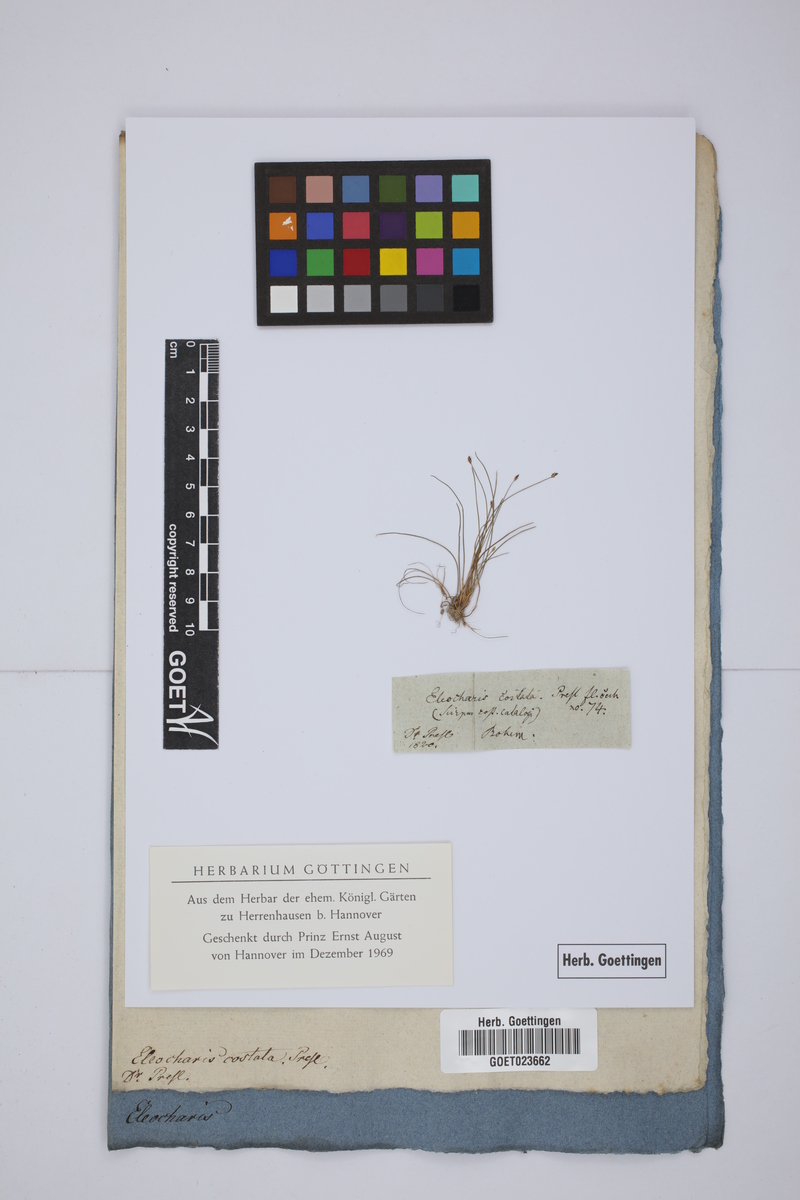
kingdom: Plantae
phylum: Tracheophyta
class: Liliopsida
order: Poales
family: Cyperaceae
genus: Eleocharis
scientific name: Eleocharis acicularis
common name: Needle spike-rush
